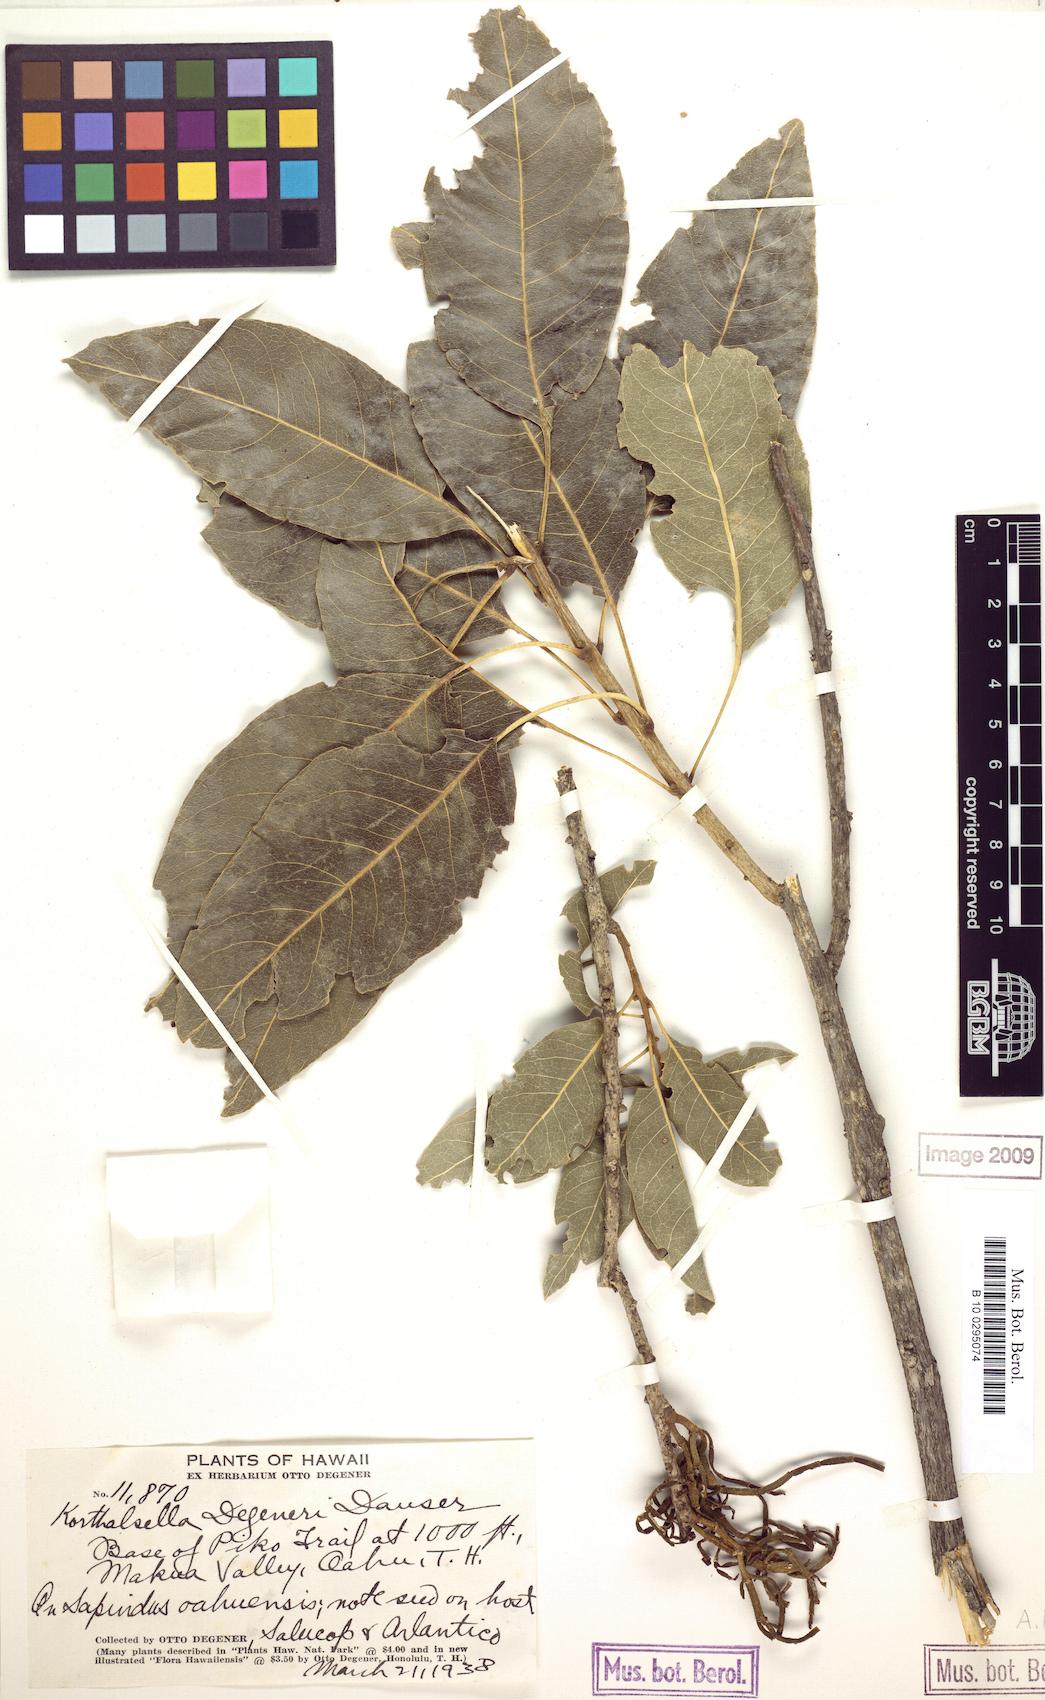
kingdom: Plantae
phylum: Tracheophyta
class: Magnoliopsida
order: Santalales
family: Viscaceae
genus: Korthalsella
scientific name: Korthalsella degeneri
